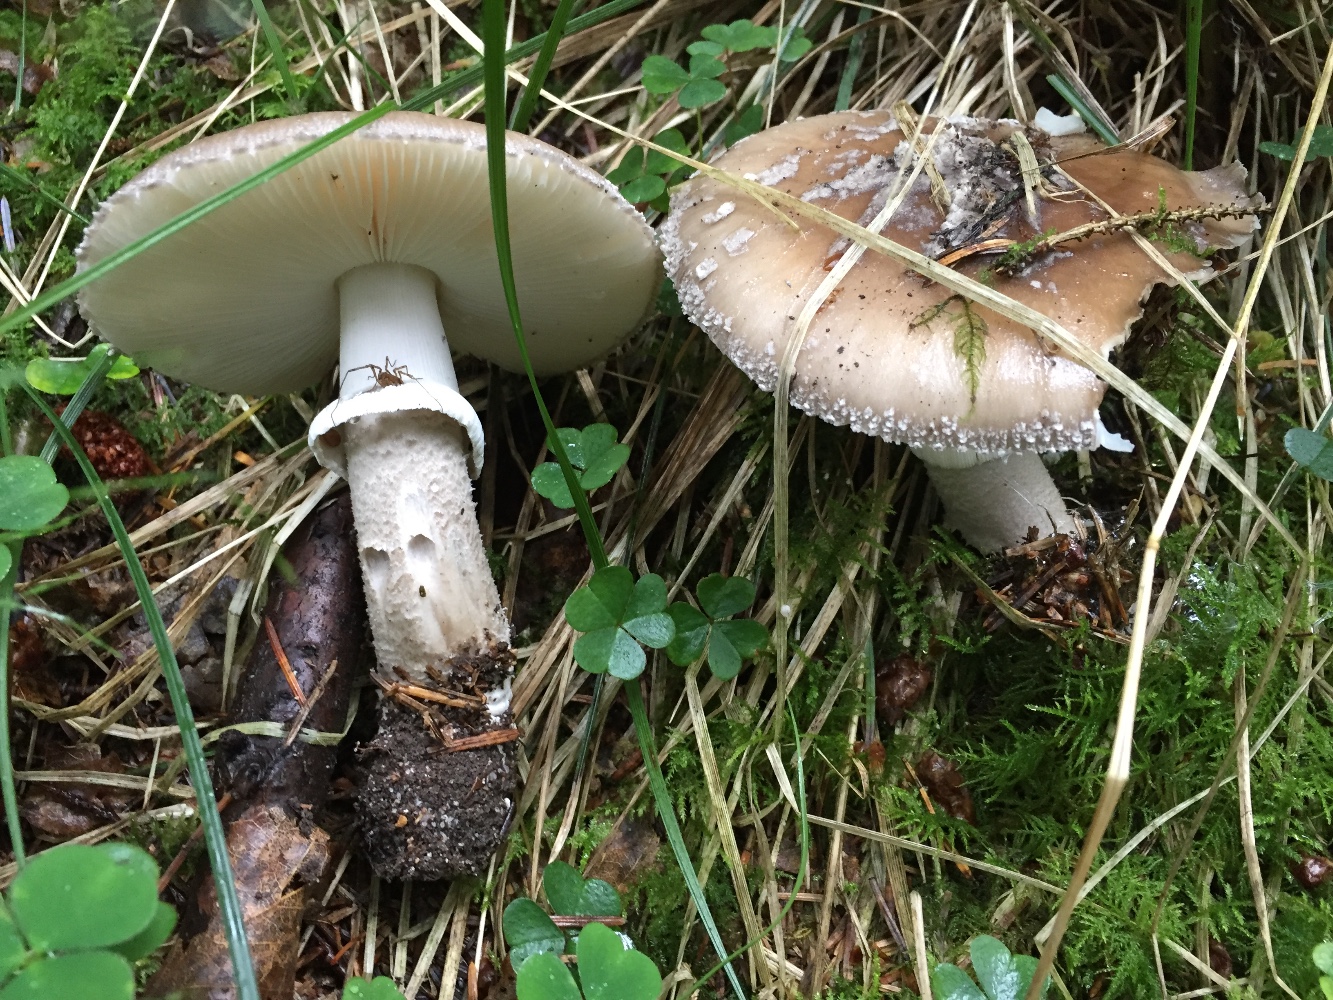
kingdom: Fungi
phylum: Basidiomycota
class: Agaricomycetes
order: Agaricales
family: Amanitaceae
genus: Amanita
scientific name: Amanita
